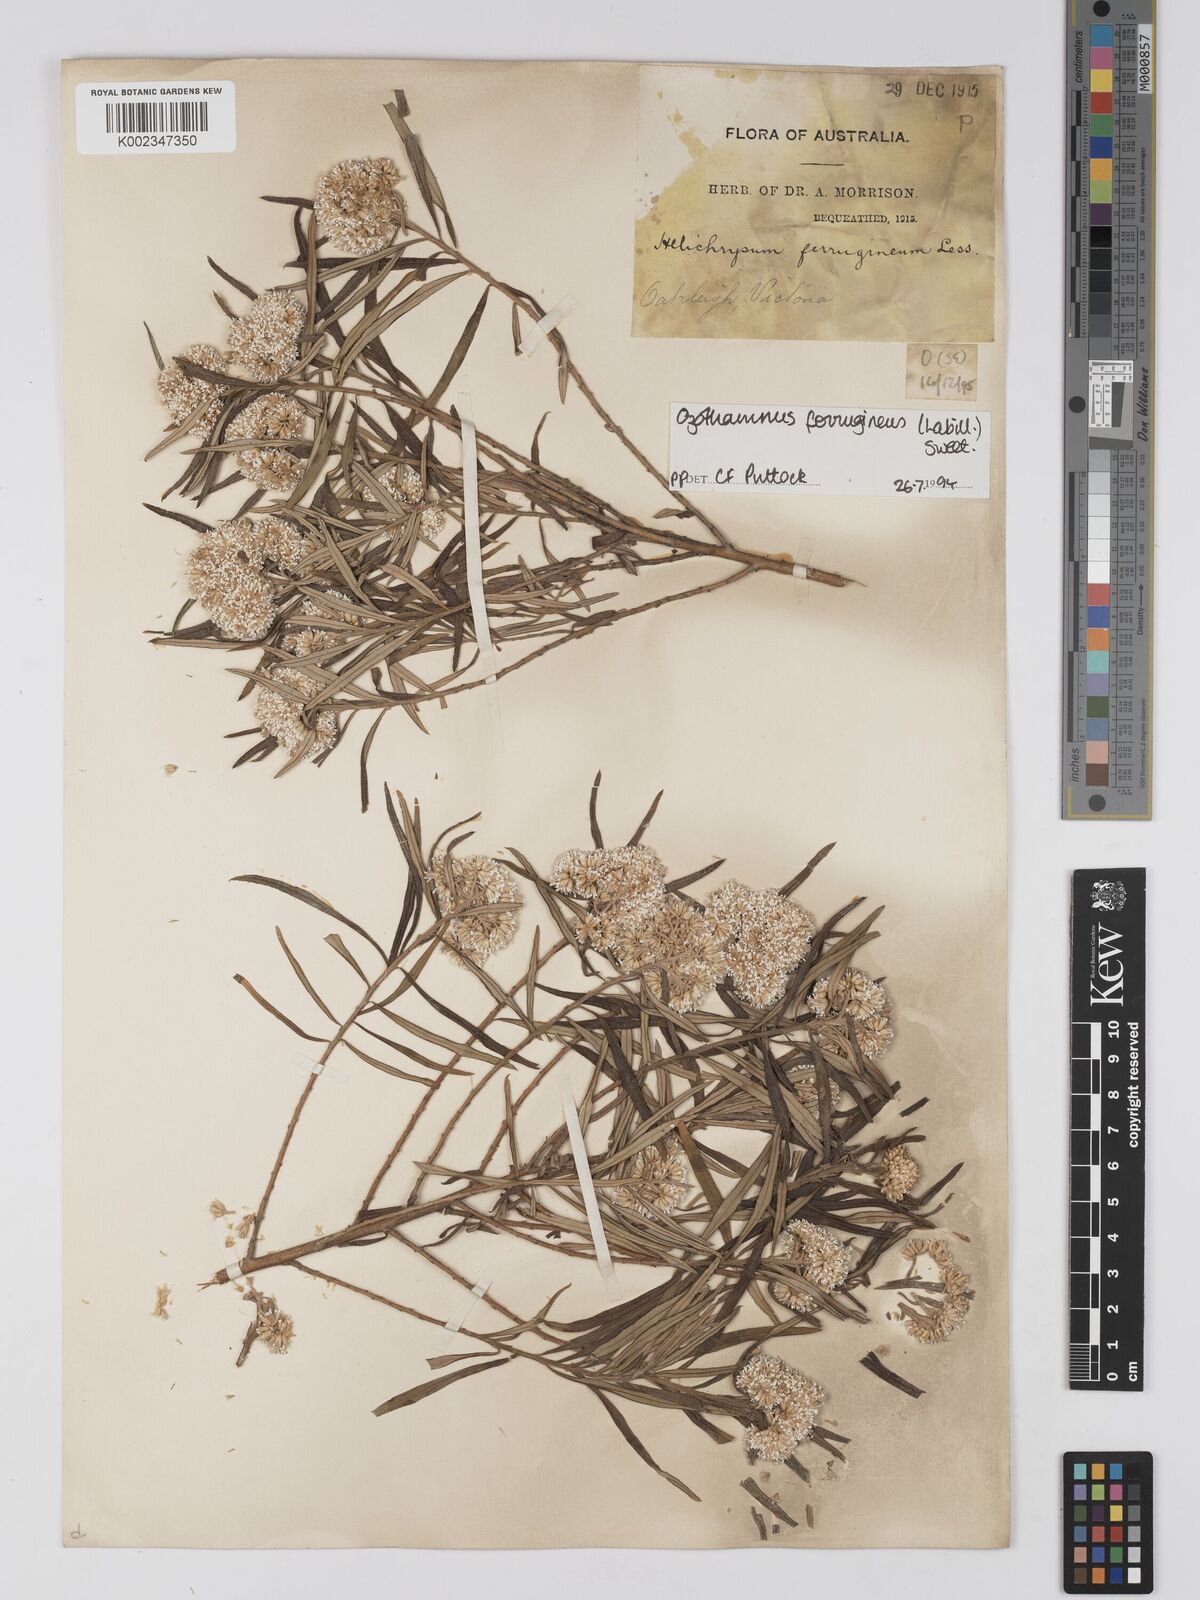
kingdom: Plantae
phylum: Tracheophyta
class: Magnoliopsida
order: Asterales
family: Asteraceae
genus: Ozothamnus
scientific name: Ozothamnus ferrugineus
